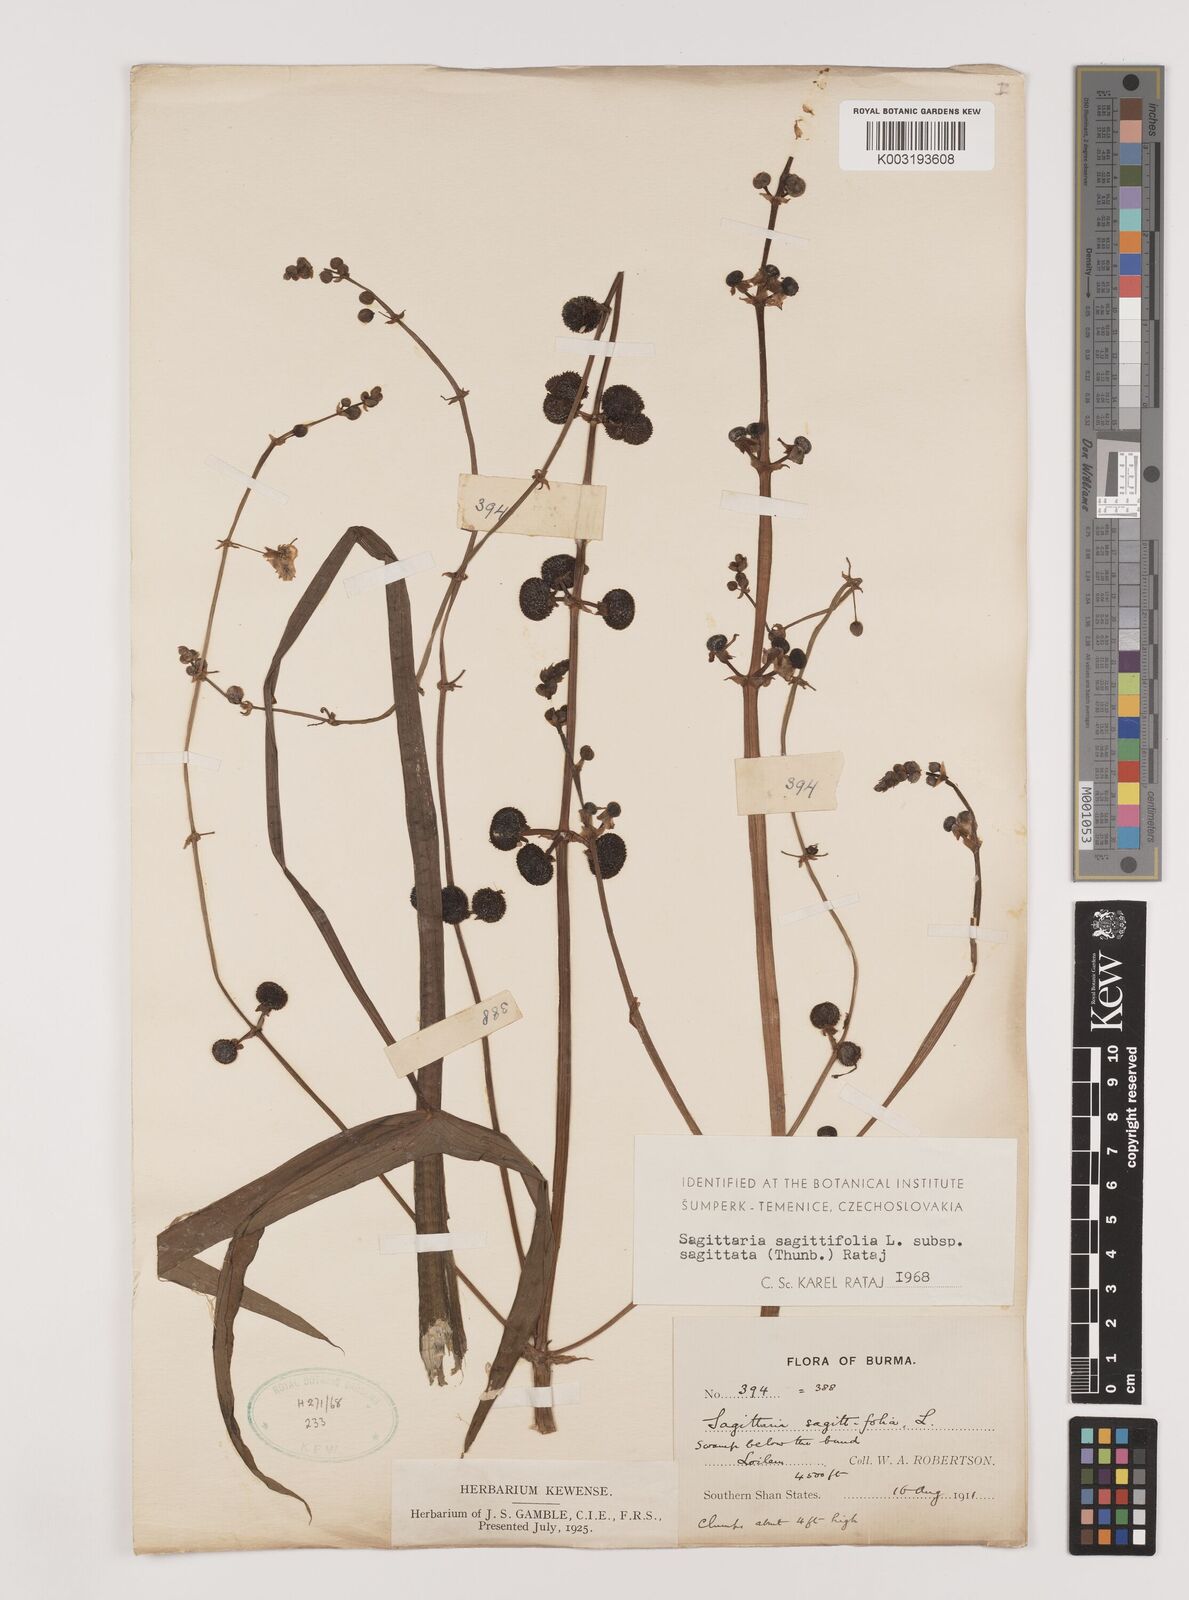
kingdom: Plantae
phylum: Tracheophyta
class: Liliopsida
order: Alismatales
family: Alismataceae
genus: Sagittaria
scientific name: Sagittaria sagittifolia
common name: Arrowhead
